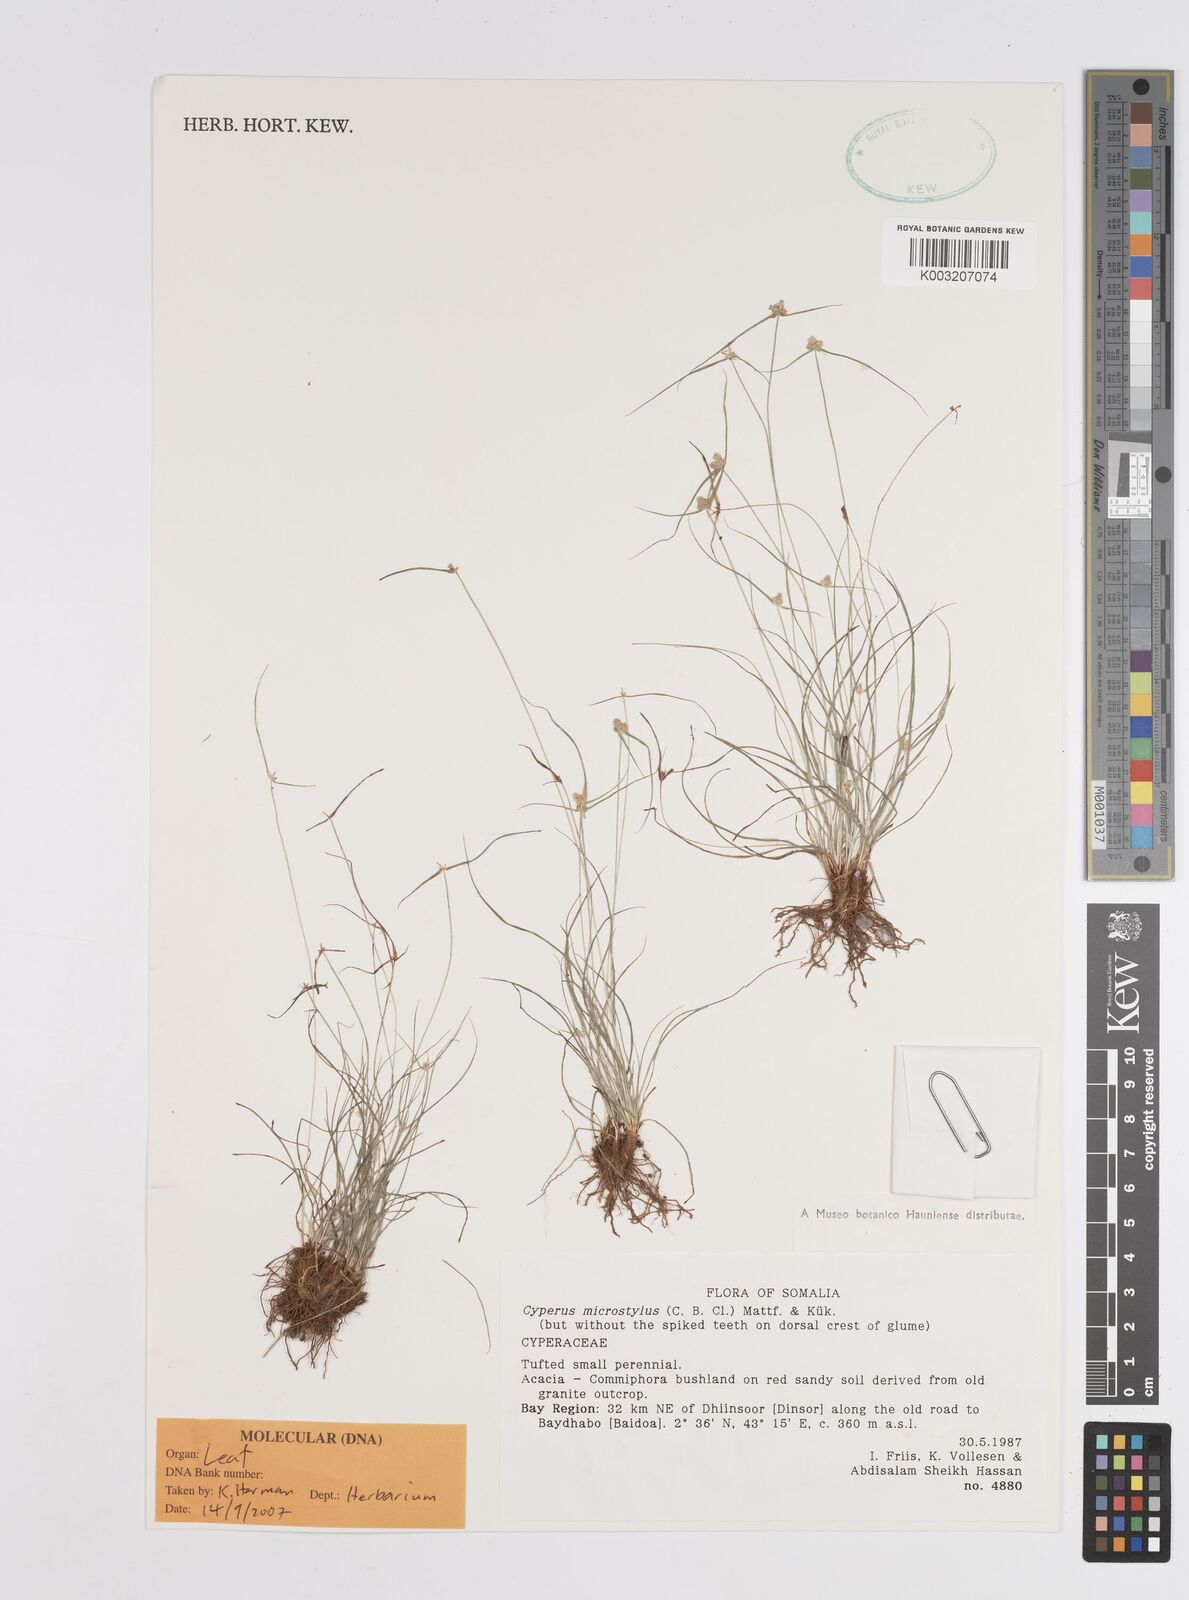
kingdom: Plantae
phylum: Tracheophyta
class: Liliopsida
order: Poales
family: Cyperaceae
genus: Cyperus
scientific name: Cyperus microstylus
